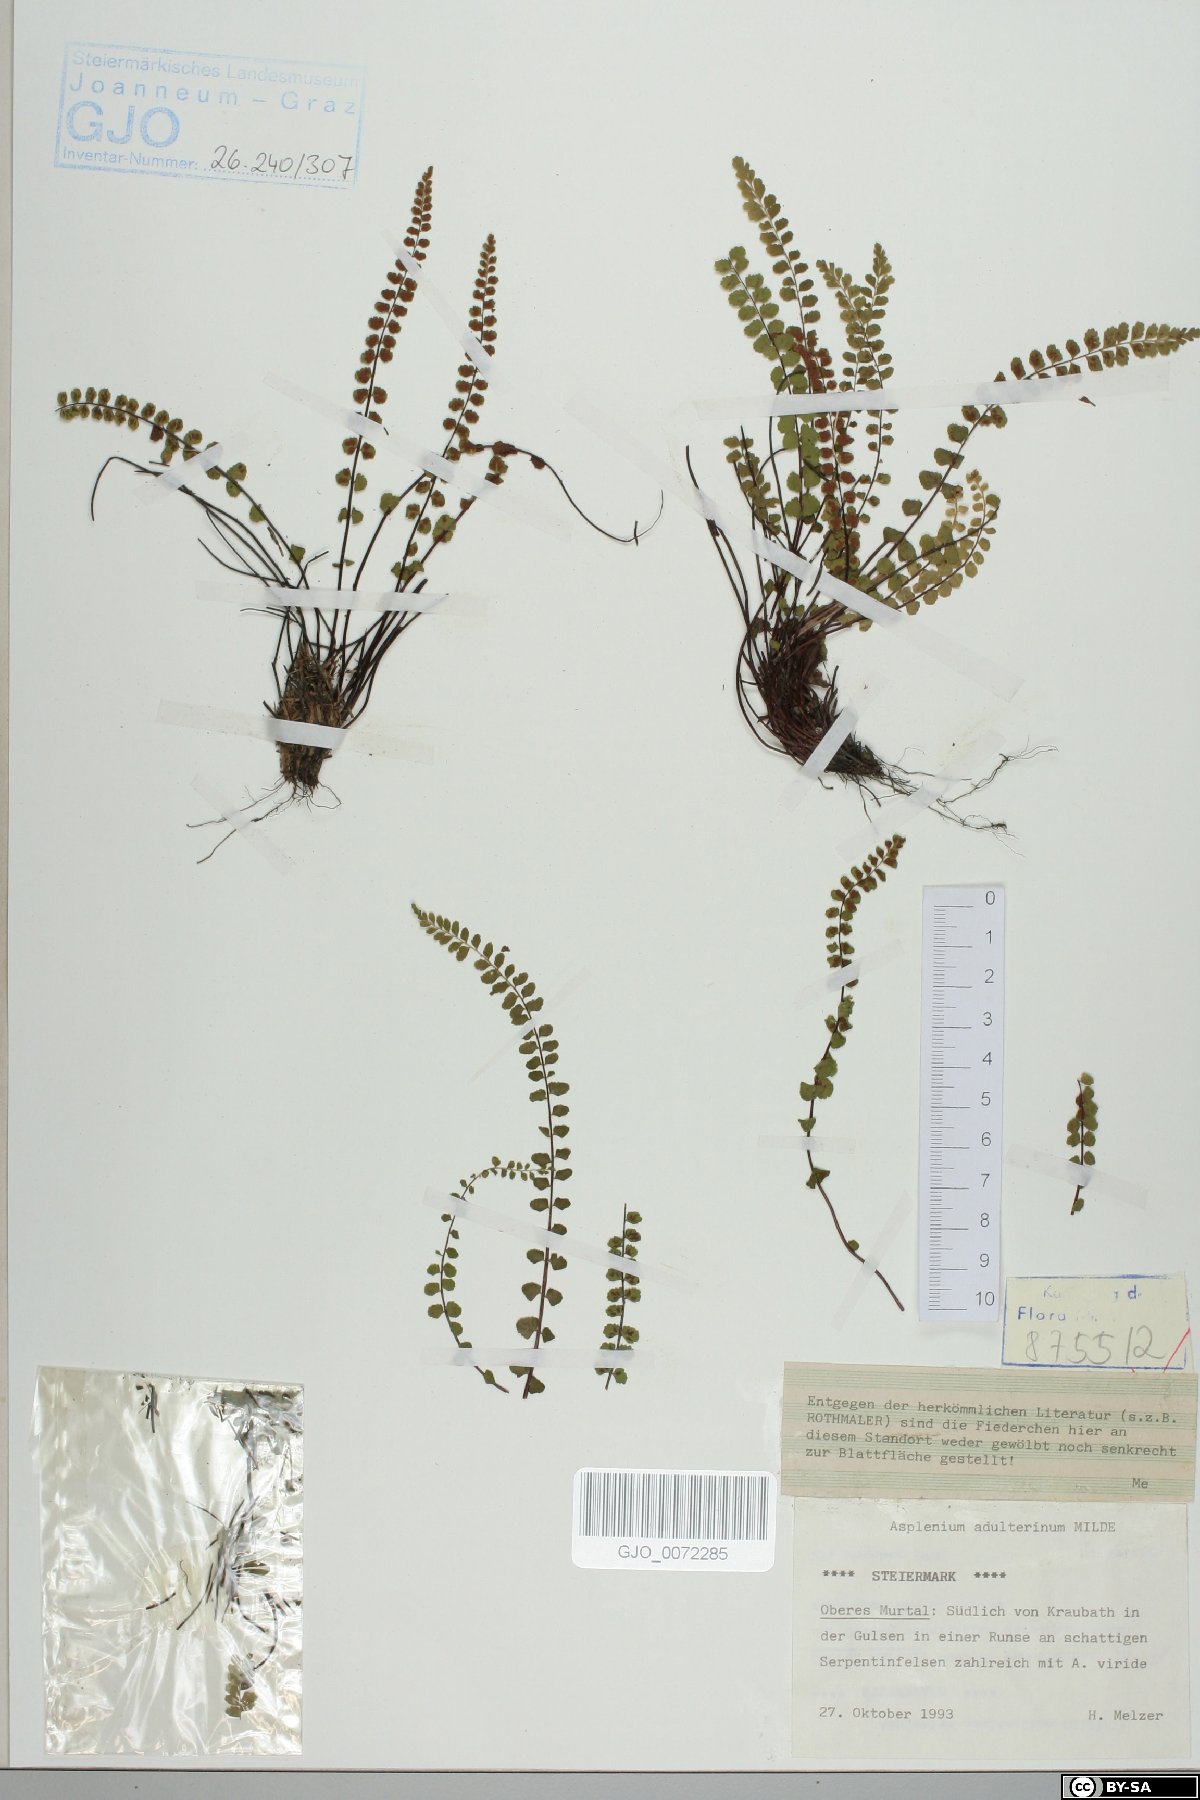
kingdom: Plantae
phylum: Tracheophyta
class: Polypodiopsida
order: Polypodiales
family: Aspleniaceae
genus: Asplenium
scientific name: Asplenium adulterinum
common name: Adulterated spleenwort
